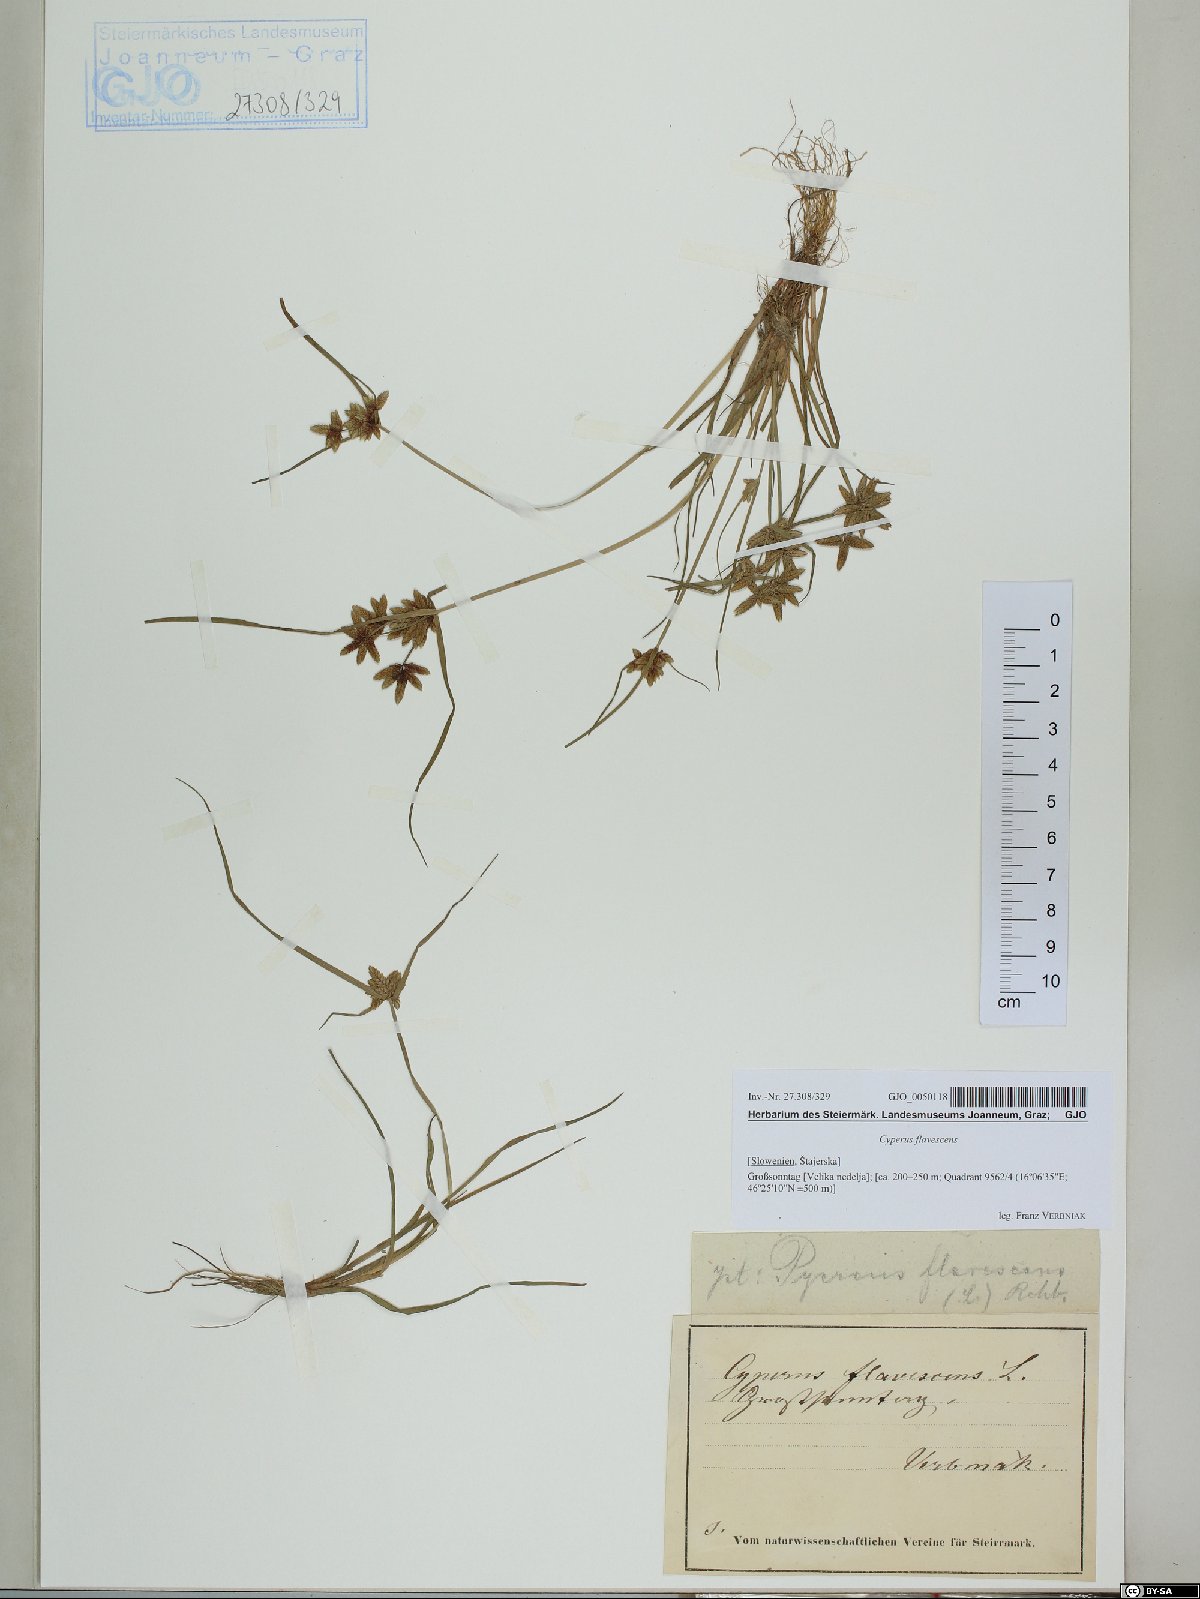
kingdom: Plantae
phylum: Tracheophyta
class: Liliopsida
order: Poales
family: Cyperaceae
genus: Cyperus
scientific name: Cyperus flavescens
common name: Yellow galingale
